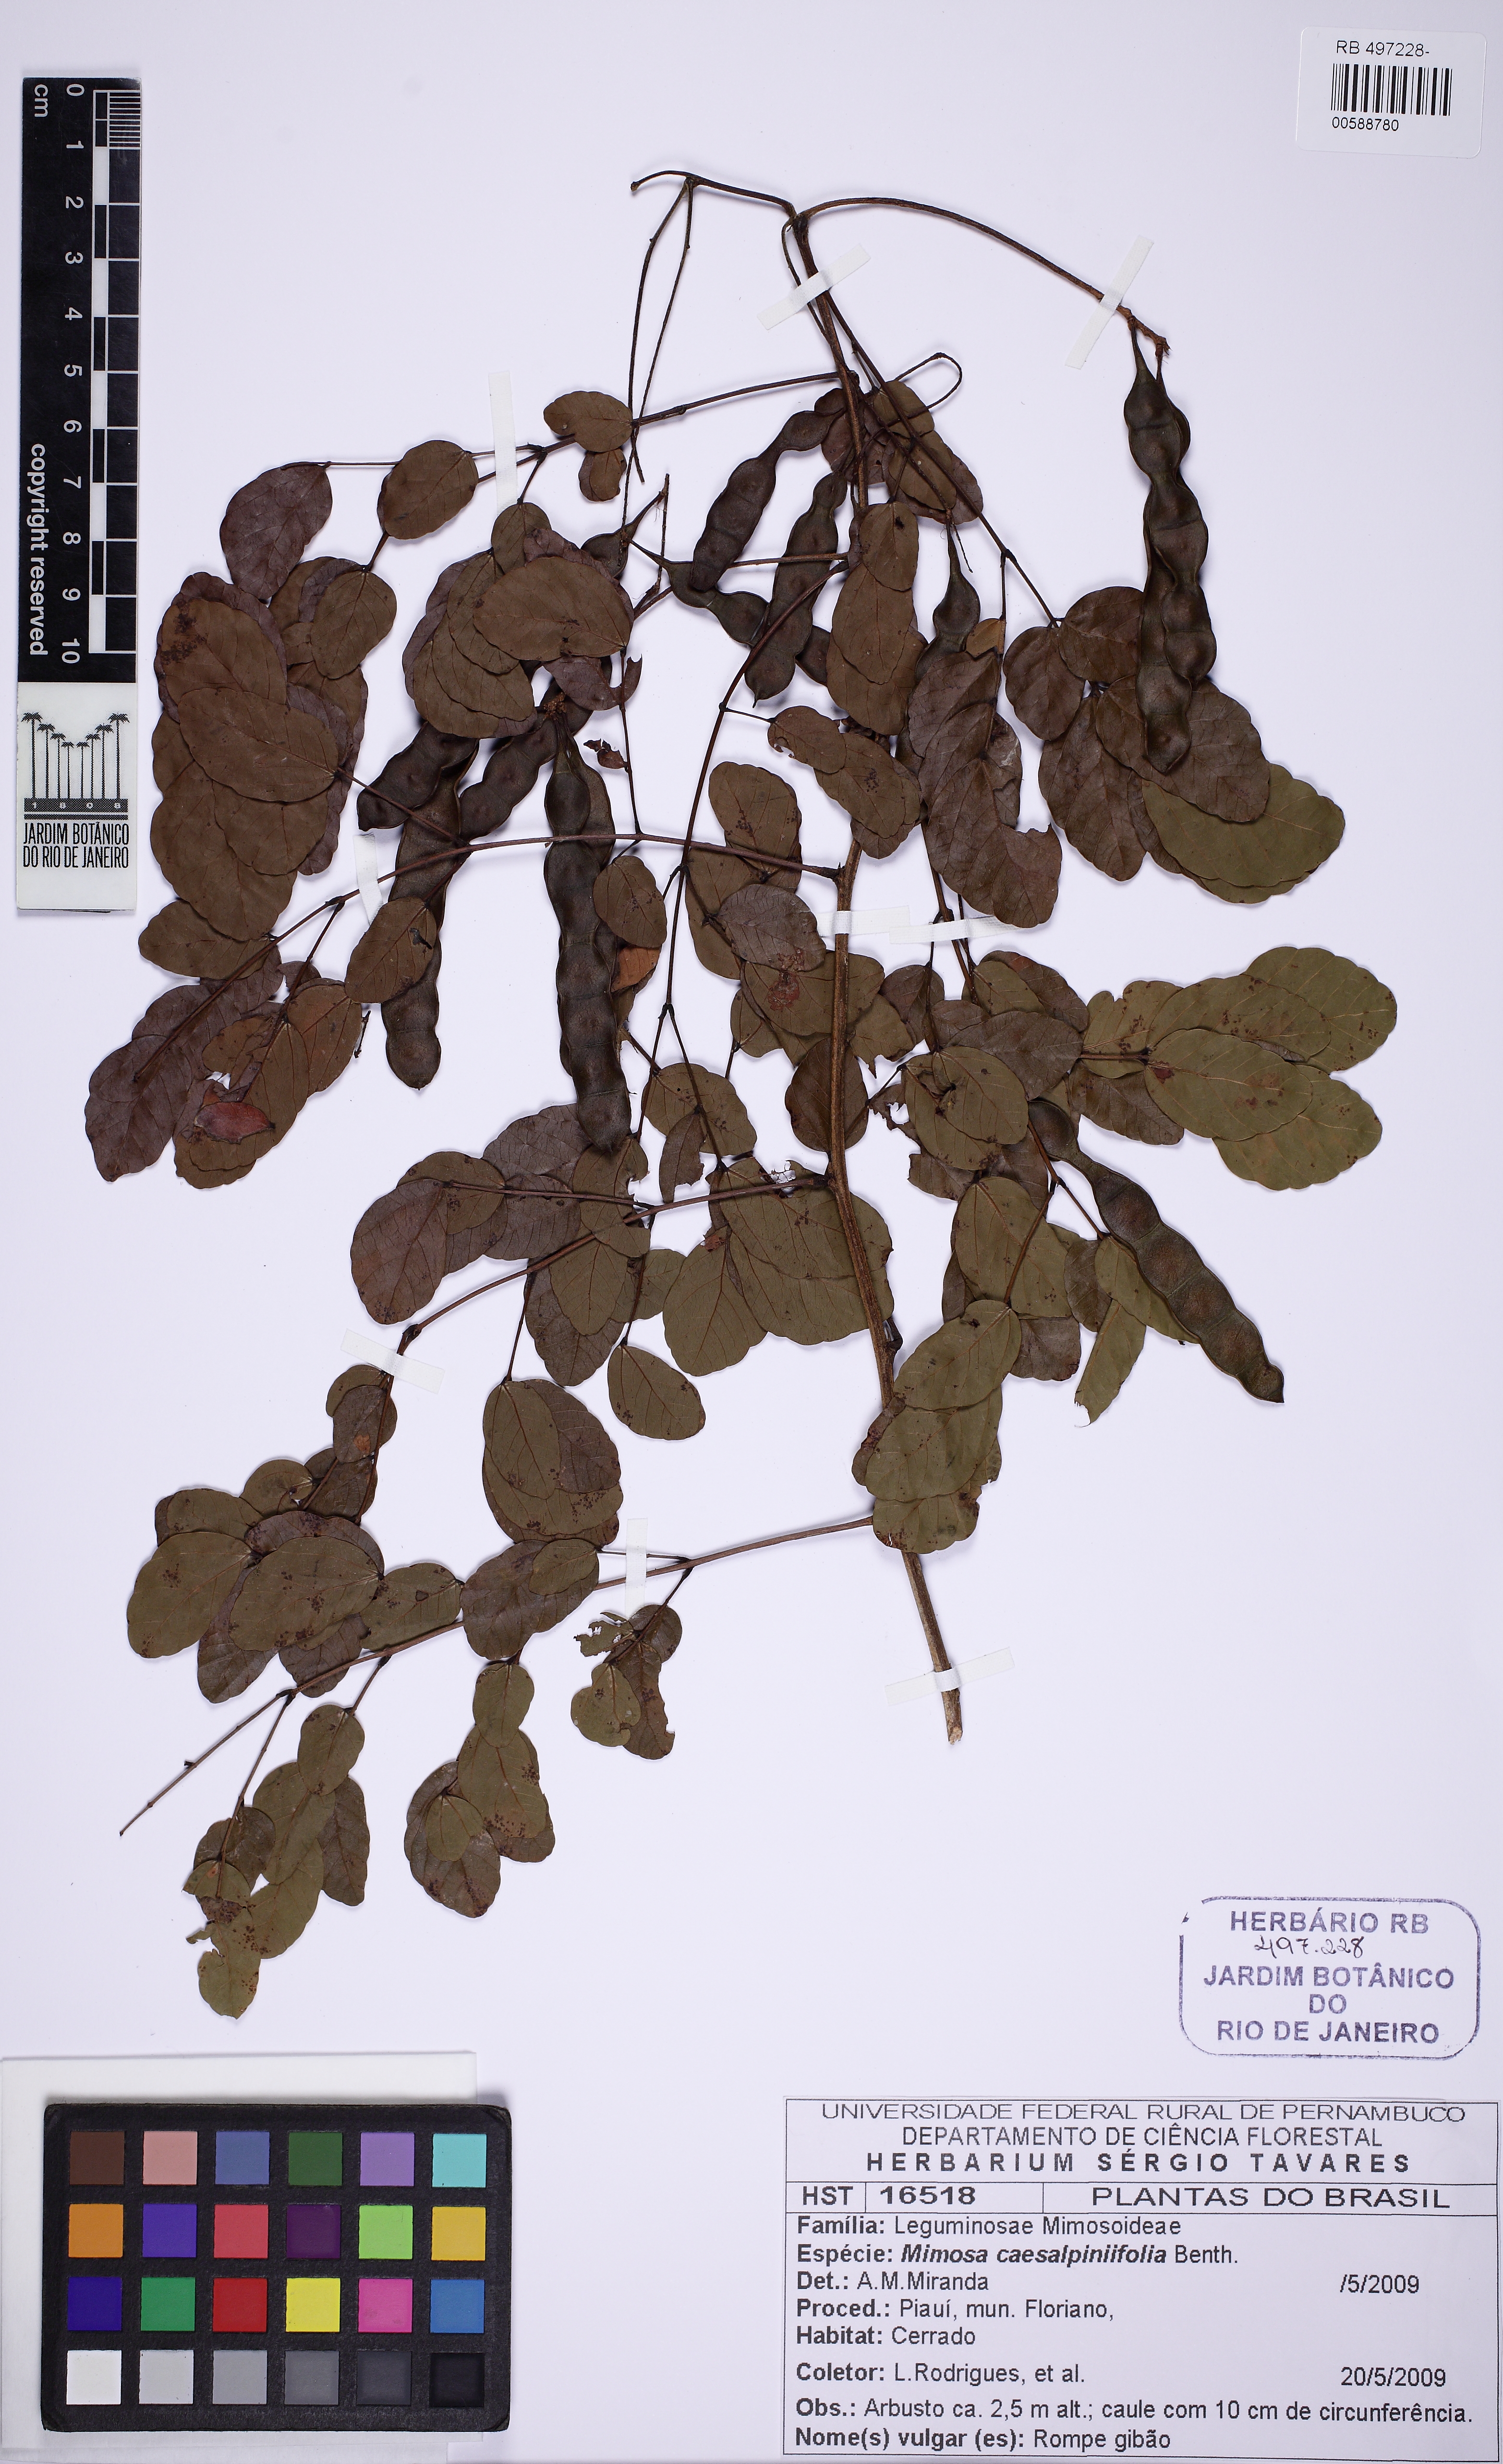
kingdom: Plantae
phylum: Tracheophyta
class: Magnoliopsida
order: Fabales
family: Fabaceae
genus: Mimosa
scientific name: Mimosa caesalpiniifolia
